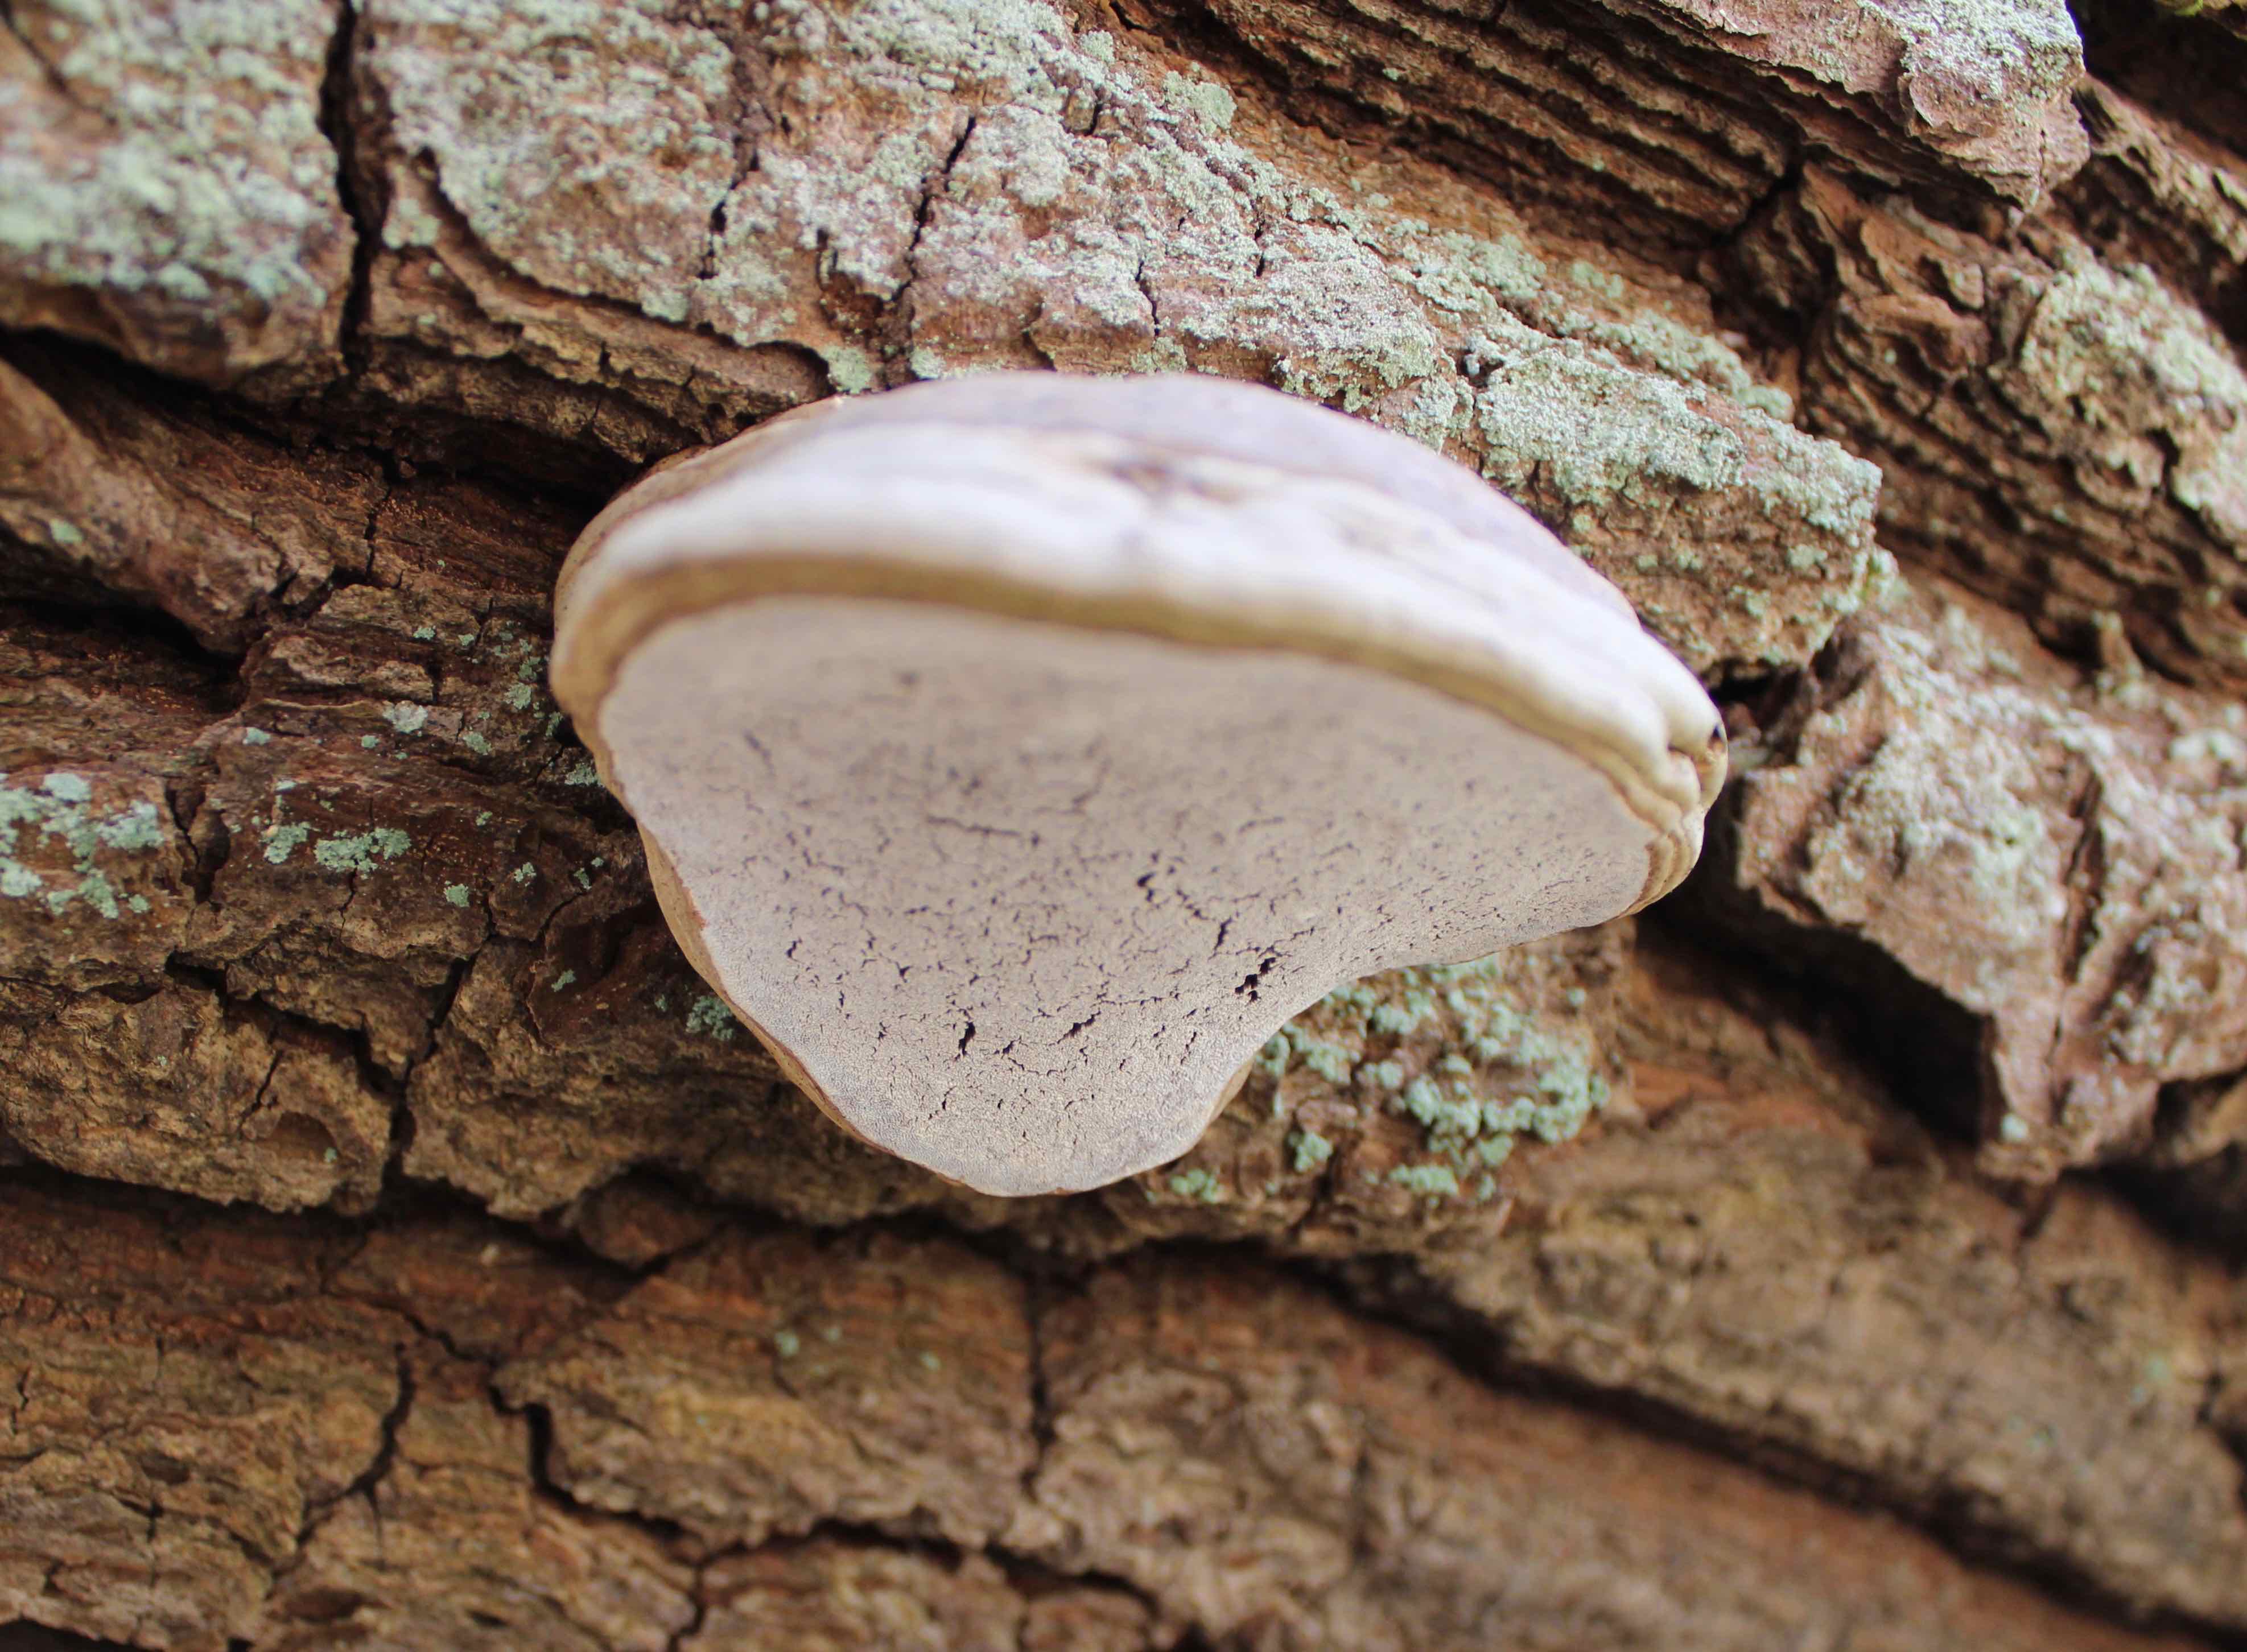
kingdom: Fungi
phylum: Basidiomycota
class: Agaricomycetes
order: Polyporales
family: Polyporaceae
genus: Fomes
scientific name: Fomes fomentarius
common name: tøndersvamp
